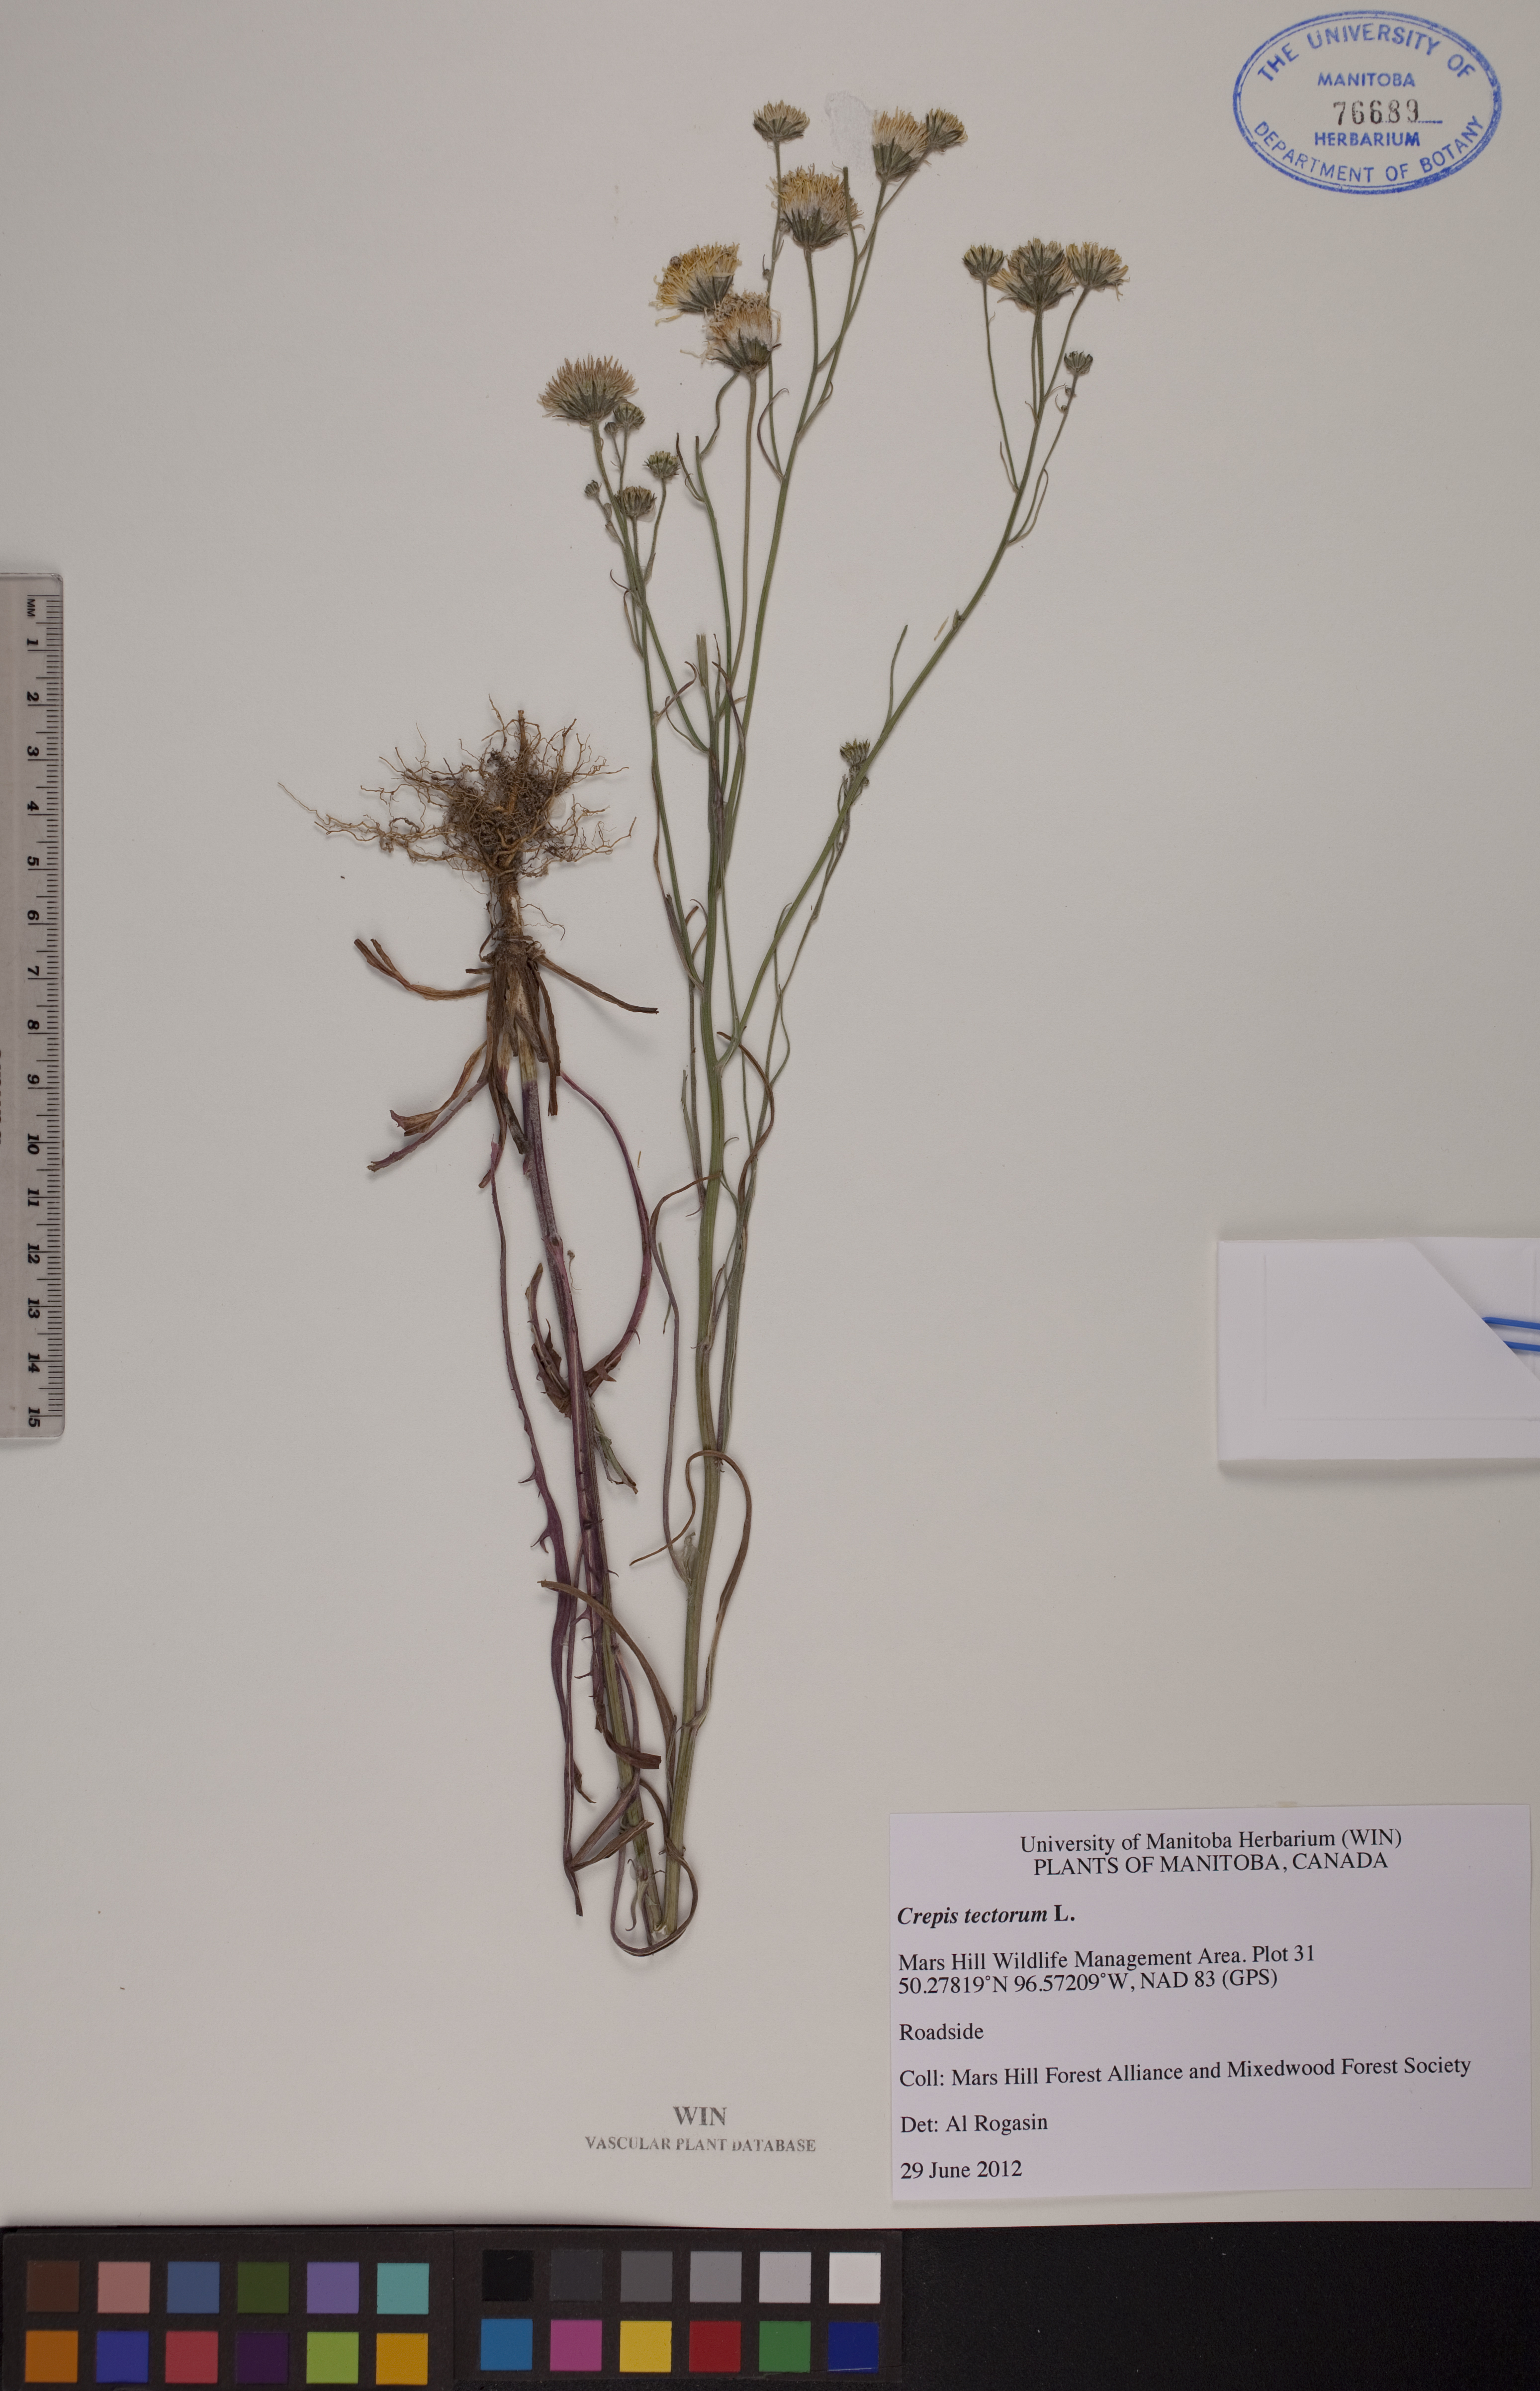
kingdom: Plantae
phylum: Tracheophyta
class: Magnoliopsida
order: Asterales
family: Asteraceae
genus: Crepis
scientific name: Crepis tectorum
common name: Narrow-leaved hawk's-beard
